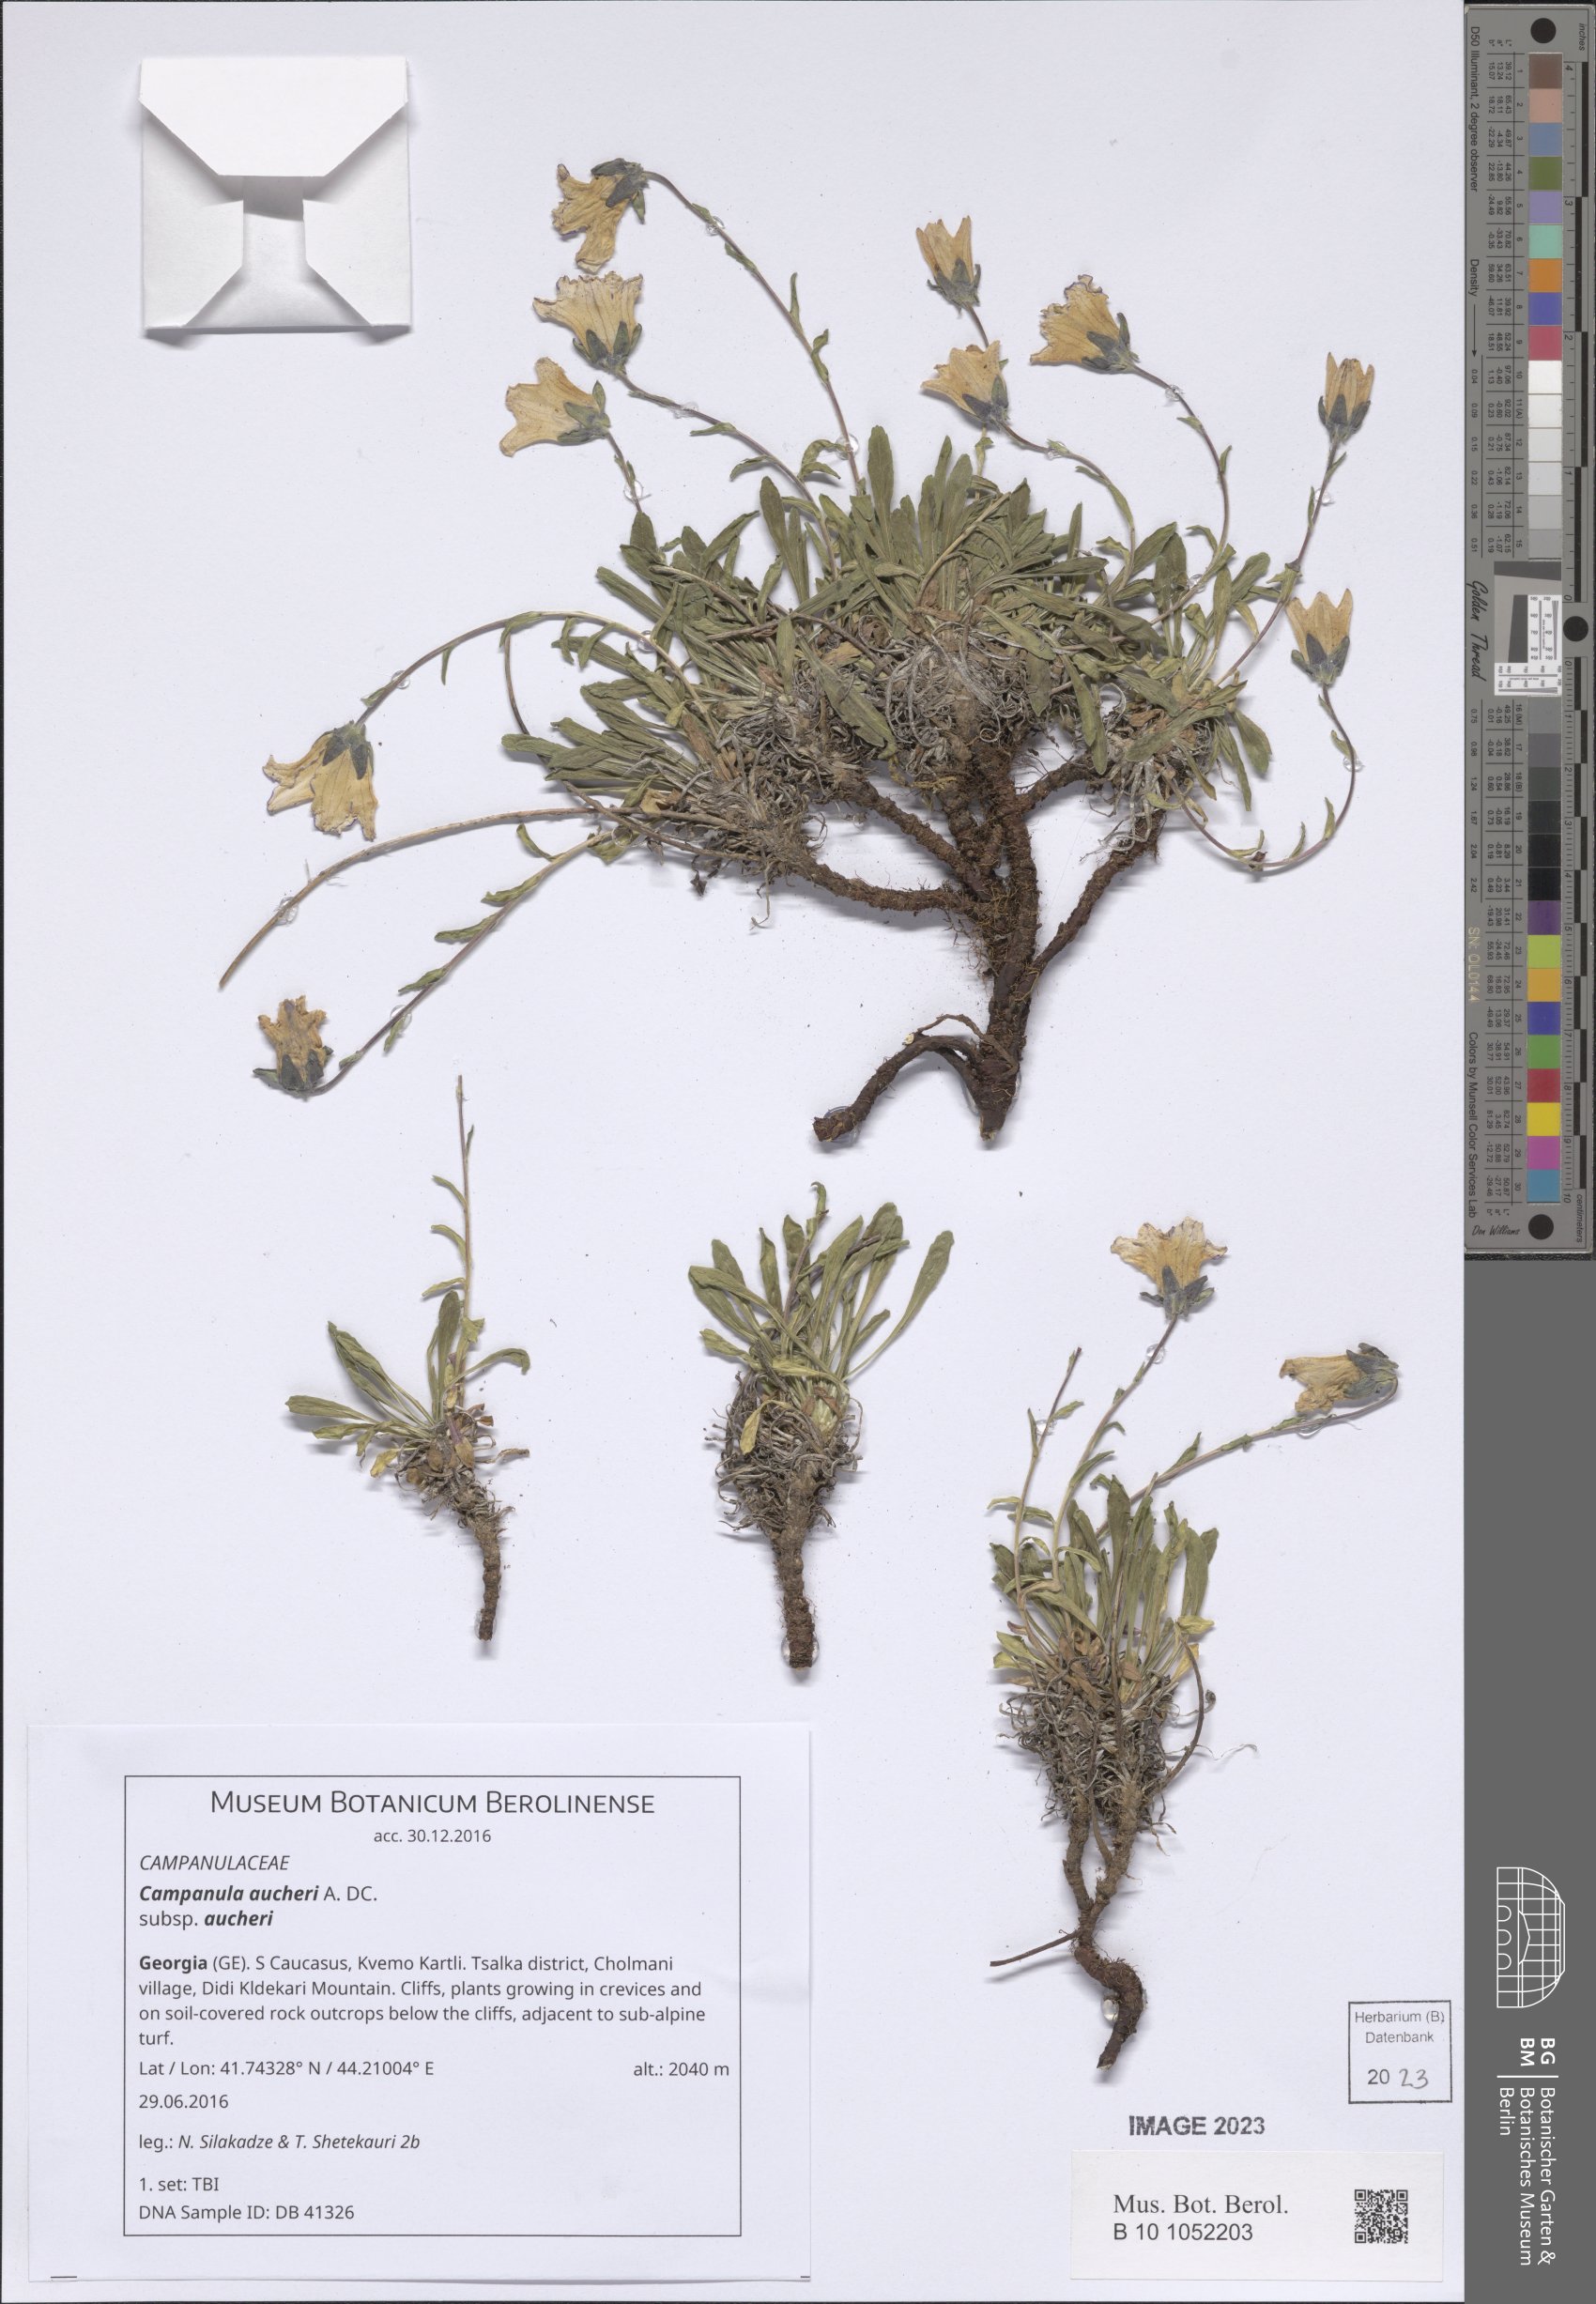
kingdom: Plantae
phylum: Tracheophyta
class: Magnoliopsida
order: Asterales
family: Campanulaceae
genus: Campanula
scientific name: Campanula saxifraga
